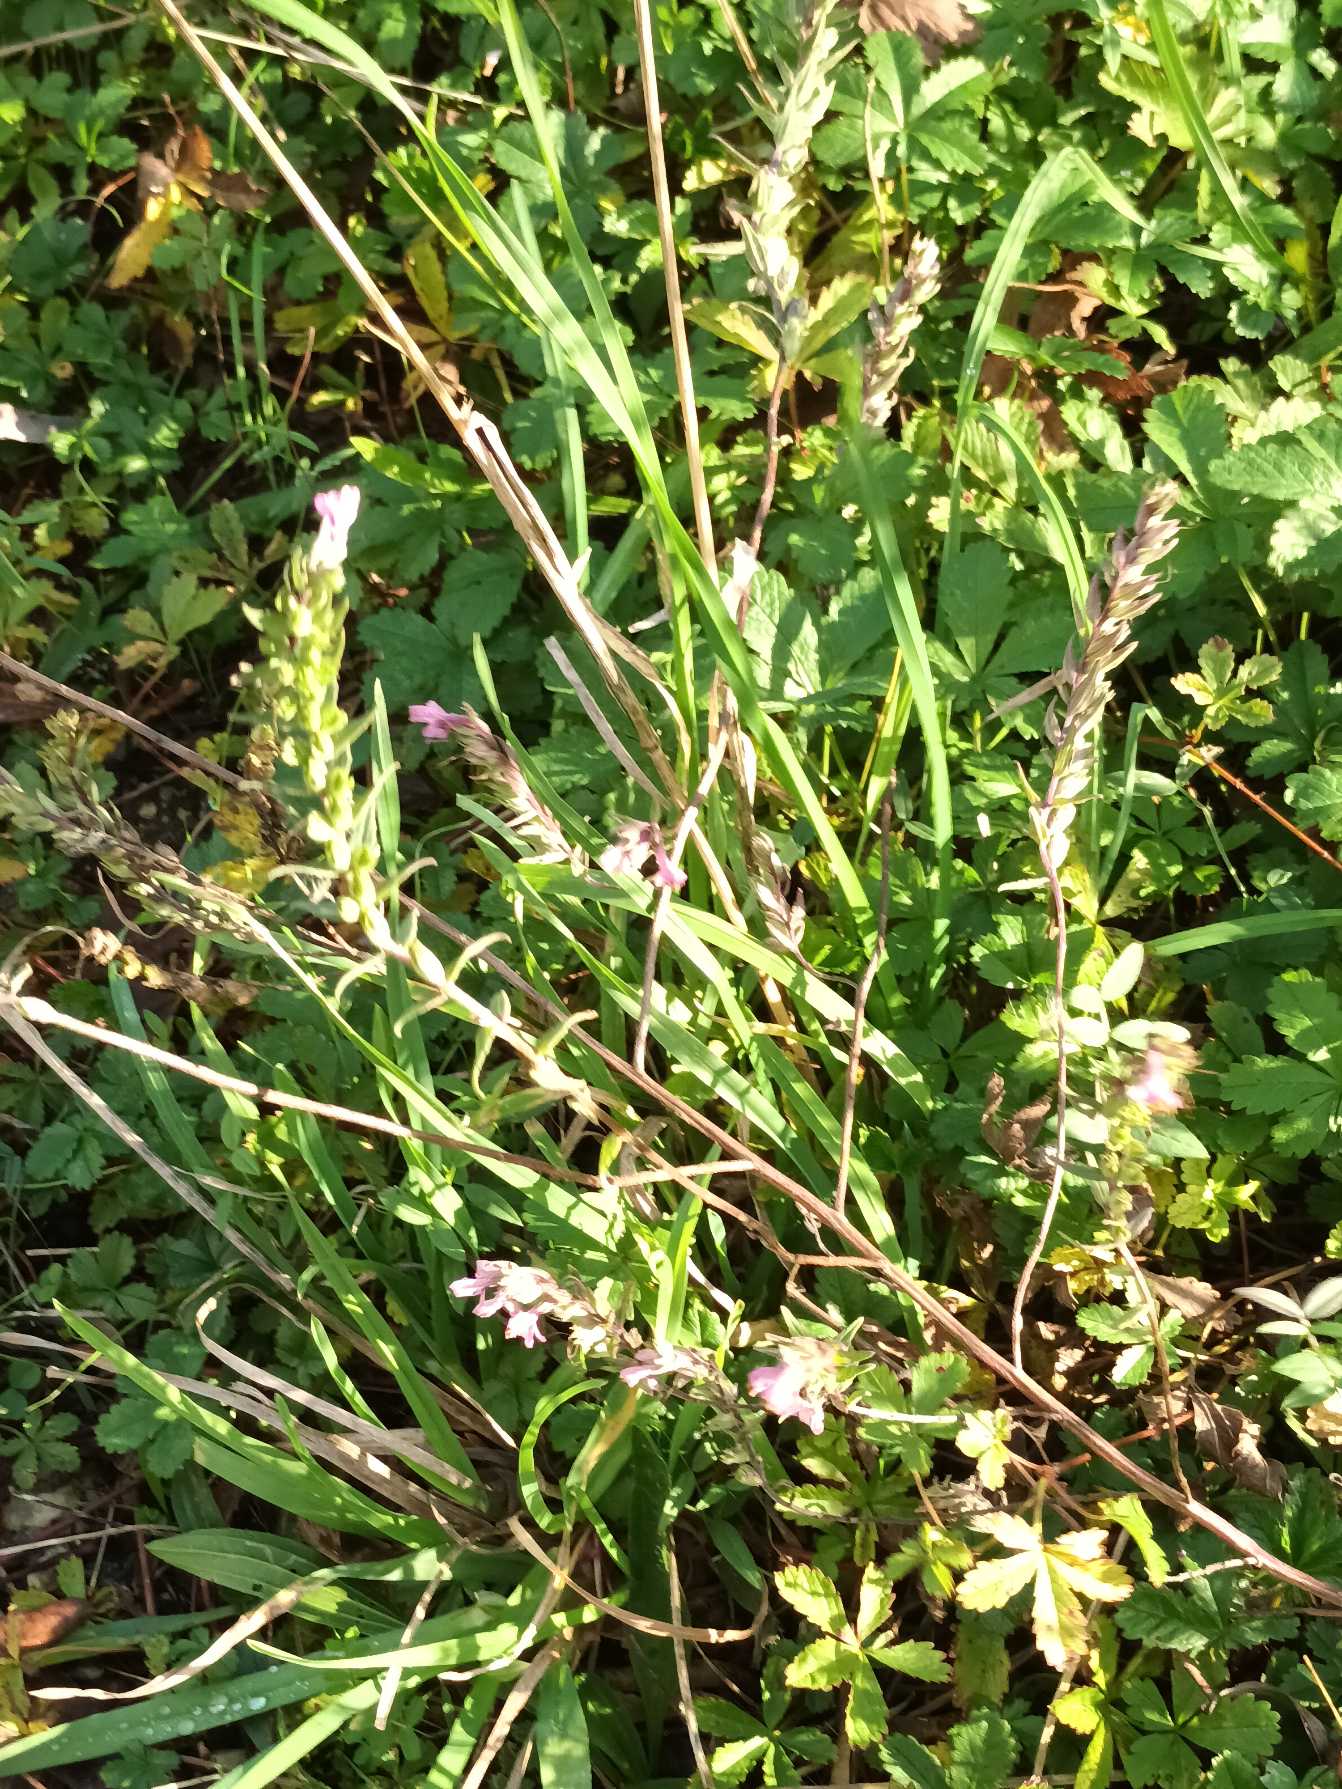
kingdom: Plantae
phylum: Tracheophyta
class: Magnoliopsida
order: Lamiales
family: Orobanchaceae
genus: Odontites
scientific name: Odontites vulgaris
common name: Høst-rødtop
